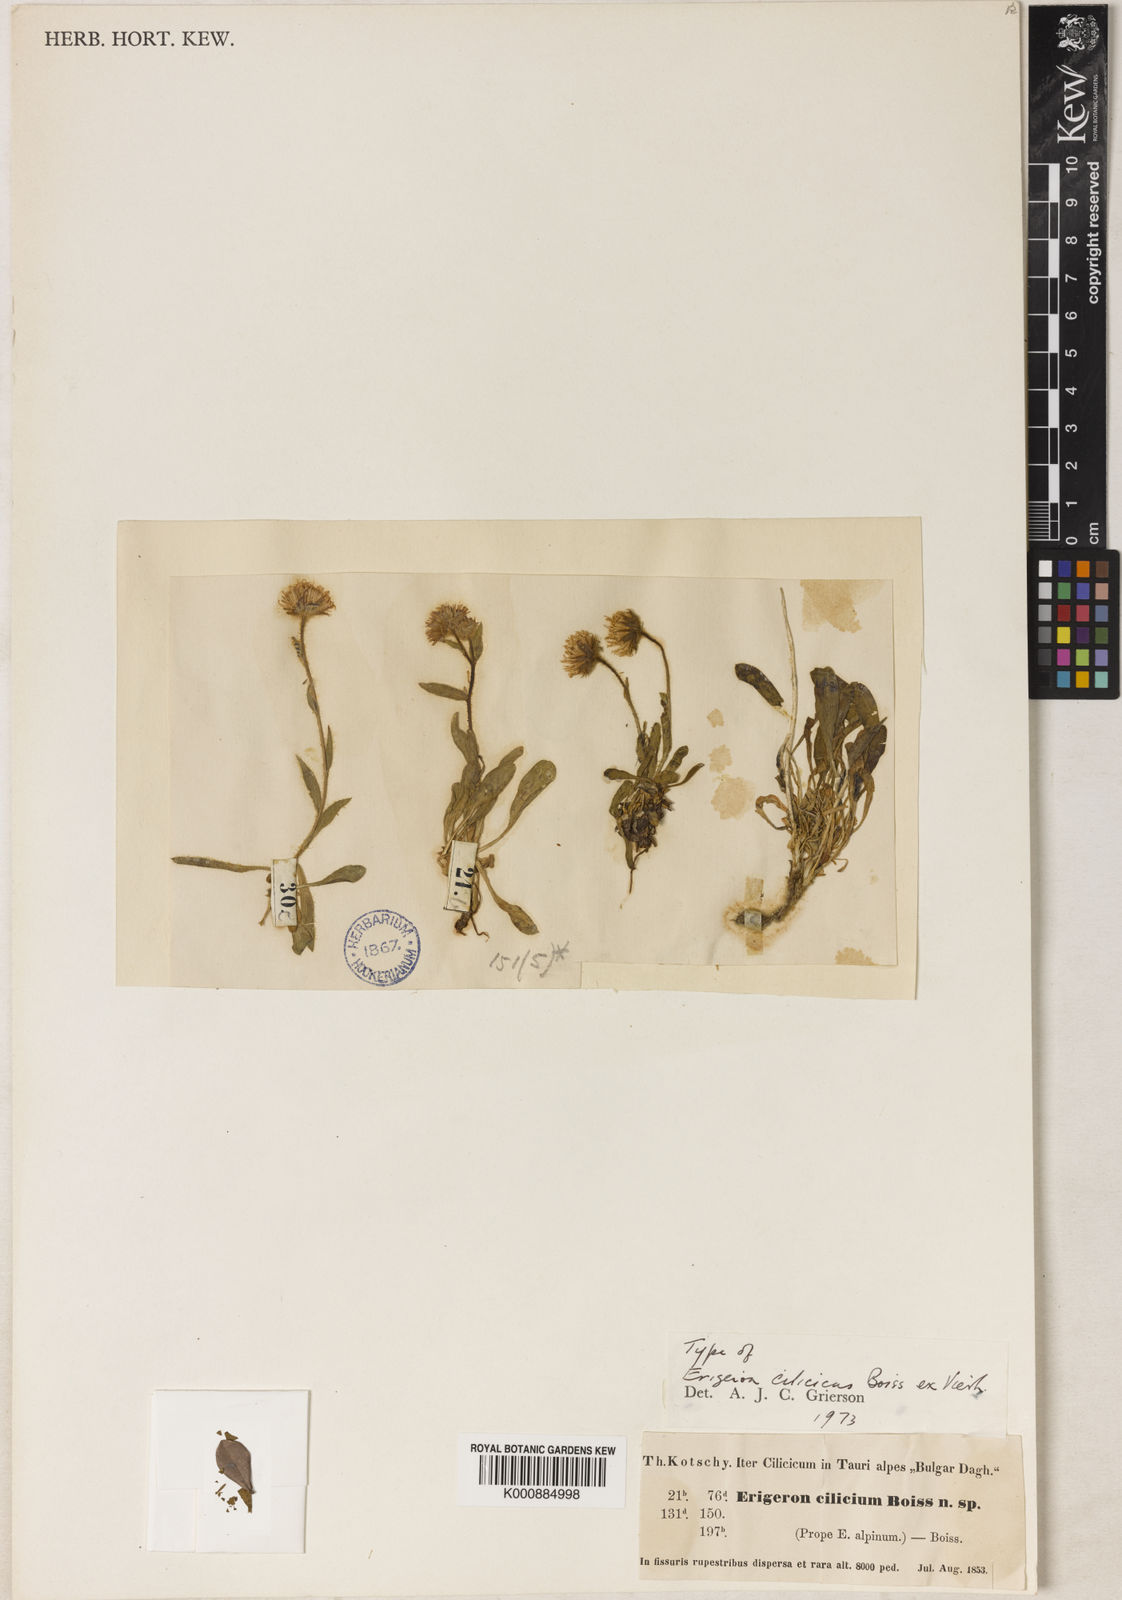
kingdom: Plantae
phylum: Tracheophyta
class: Magnoliopsida
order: Asterales
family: Asteraceae
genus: Erigeron
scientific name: Erigeron cilicicus
